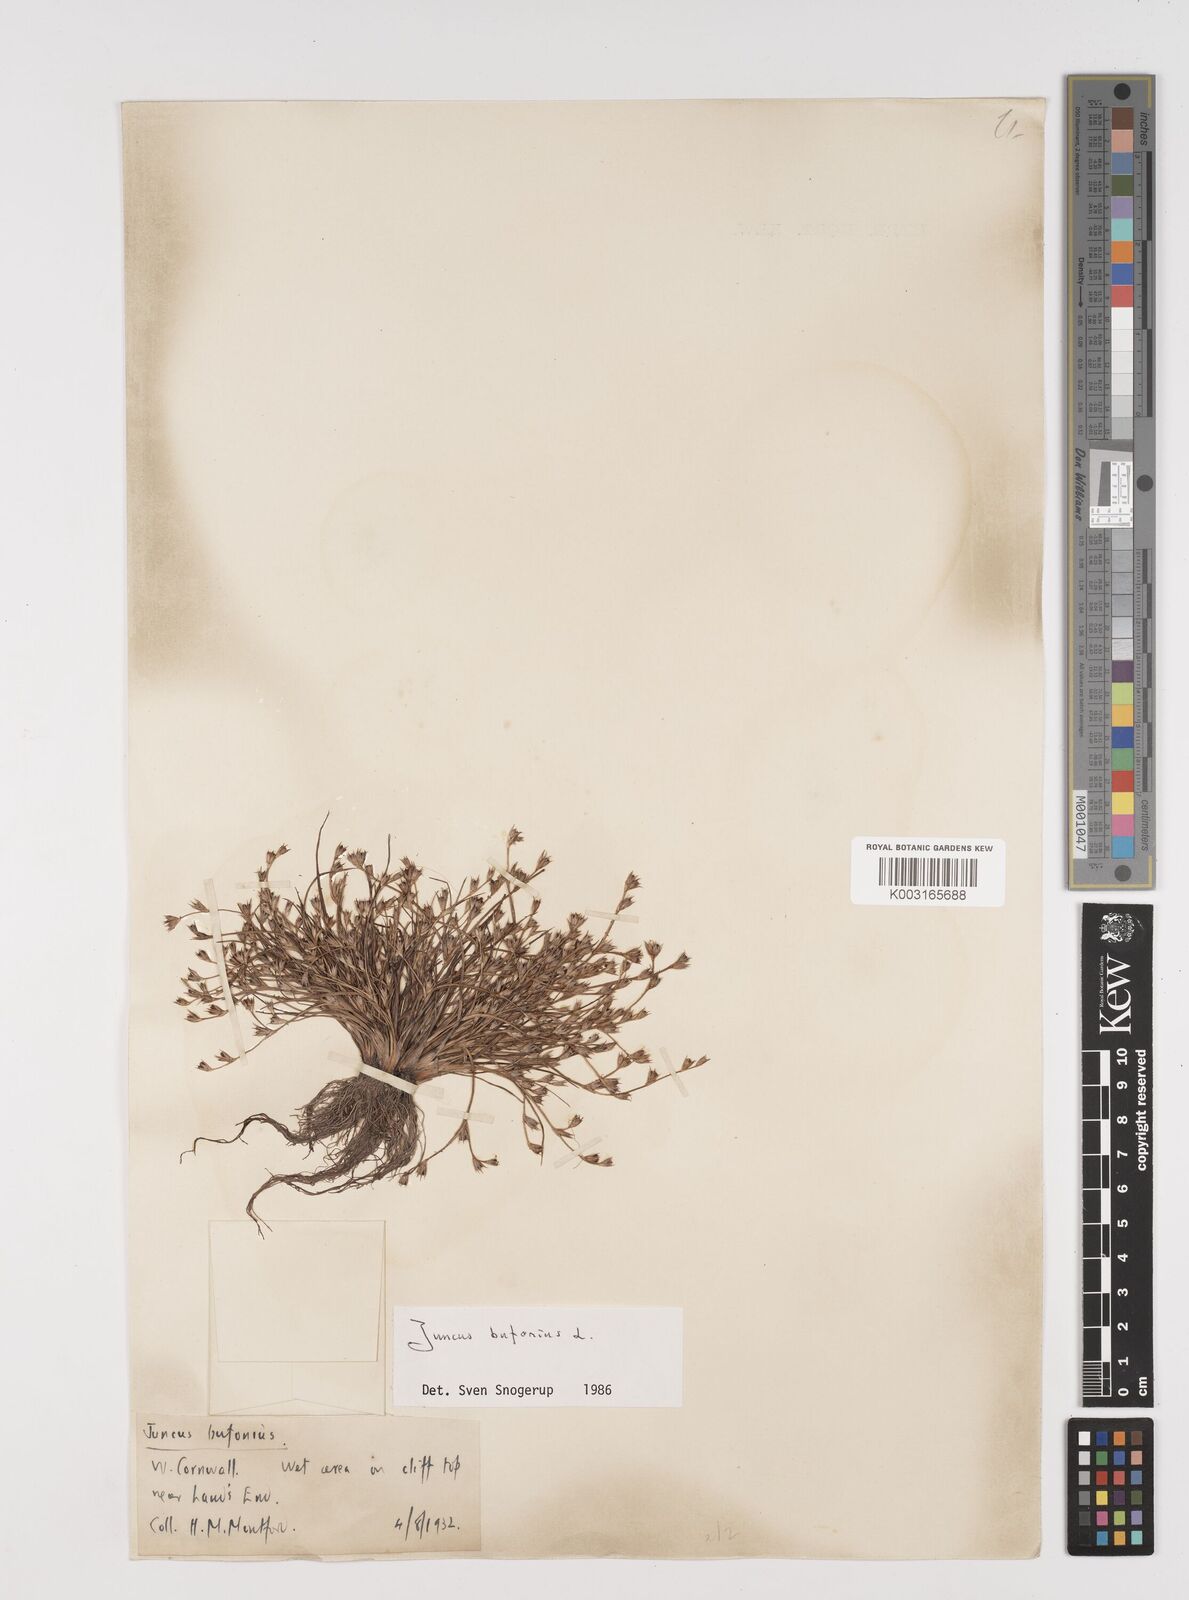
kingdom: Plantae
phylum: Tracheophyta
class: Liliopsida
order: Poales
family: Juncaceae
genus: Juncus
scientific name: Juncus bufonius
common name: Toad rush
